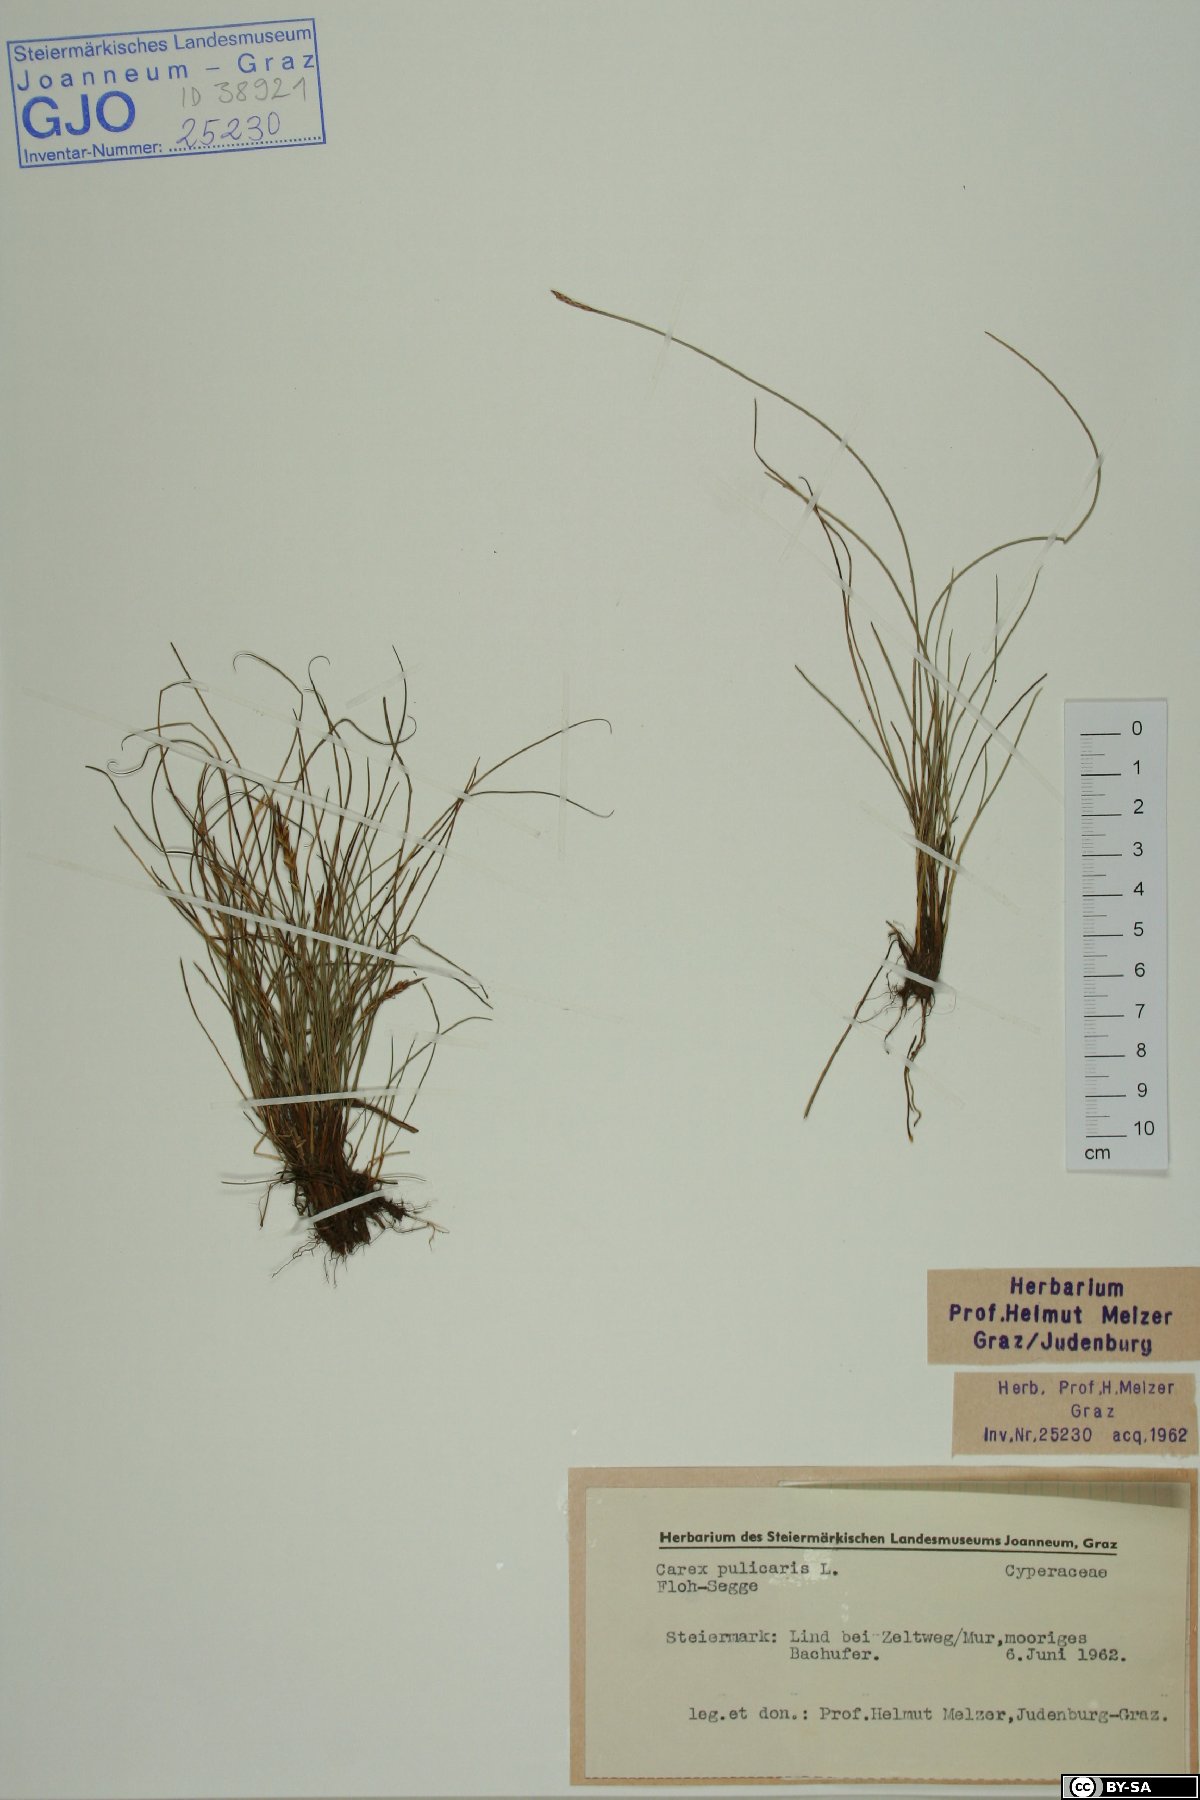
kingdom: Plantae
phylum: Tracheophyta
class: Liliopsida
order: Poales
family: Cyperaceae
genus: Carex
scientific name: Carex pulicaris
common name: Flea sedge
